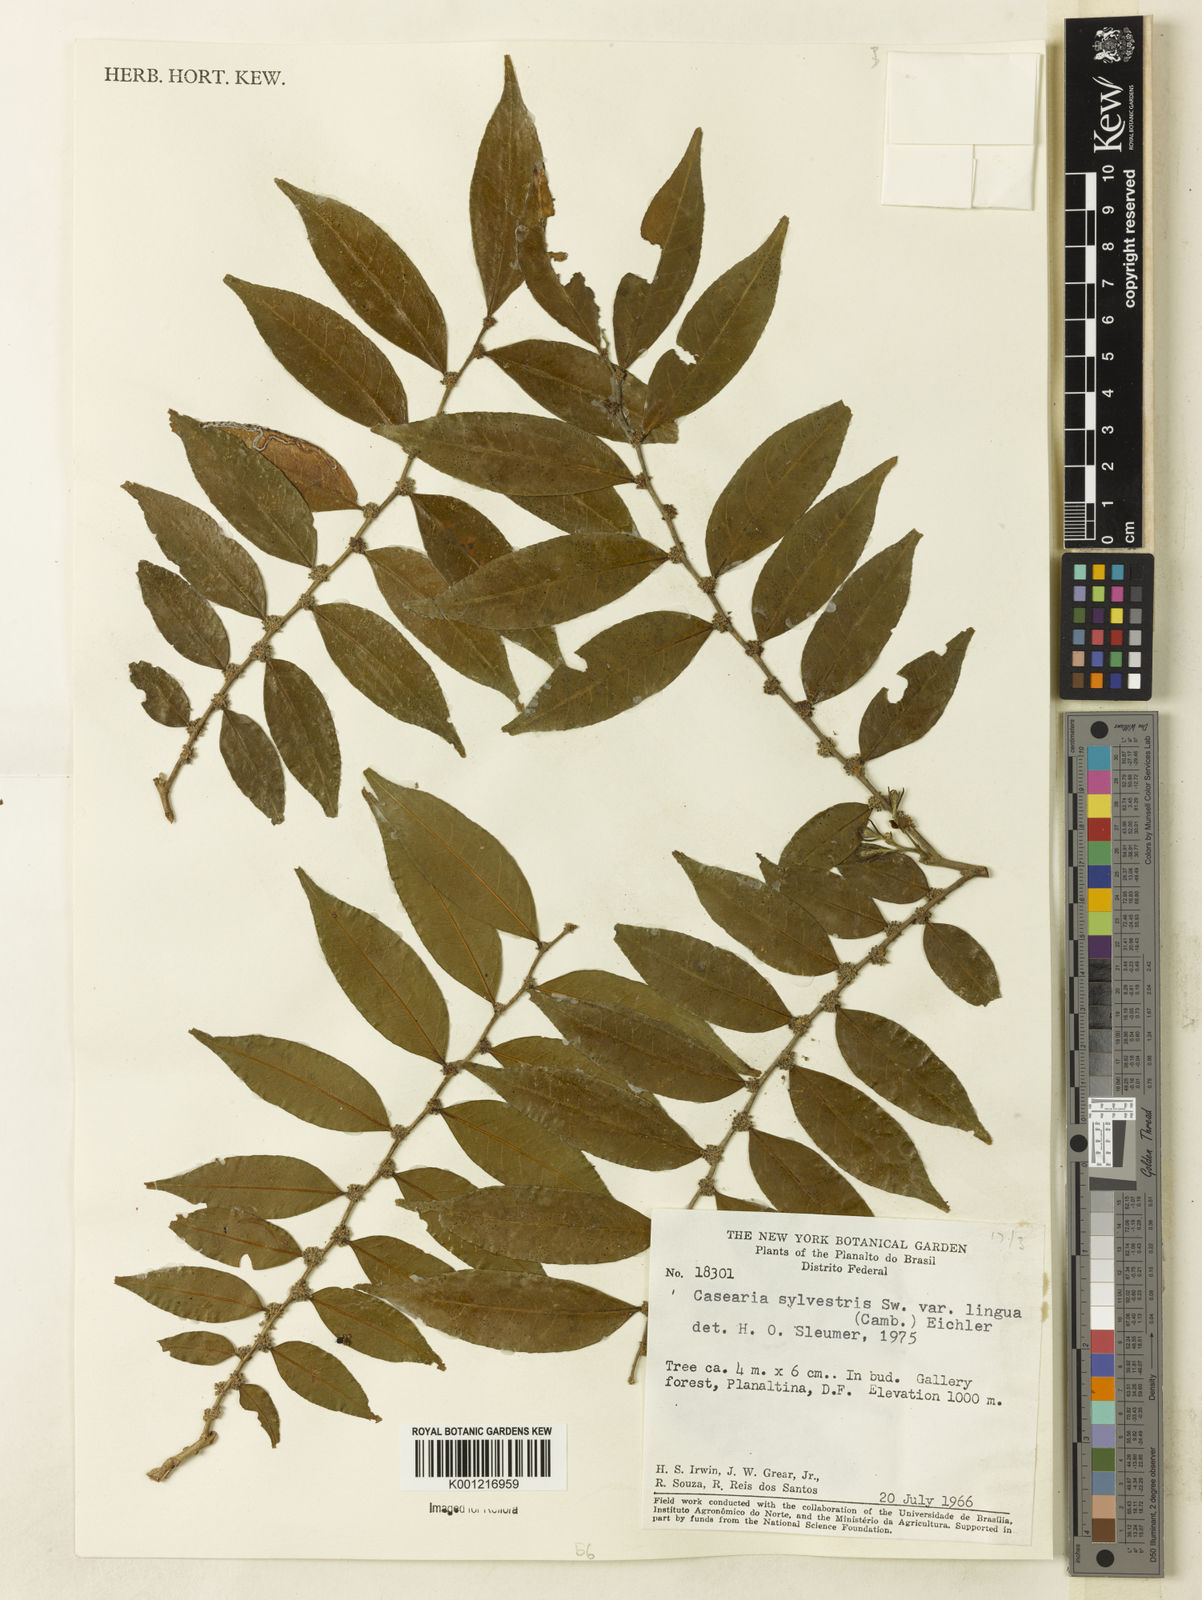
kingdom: Plantae
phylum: Tracheophyta
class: Magnoliopsida
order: Malpighiales
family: Salicaceae
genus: Casearia
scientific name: Casearia sylvestris
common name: Wild sage
